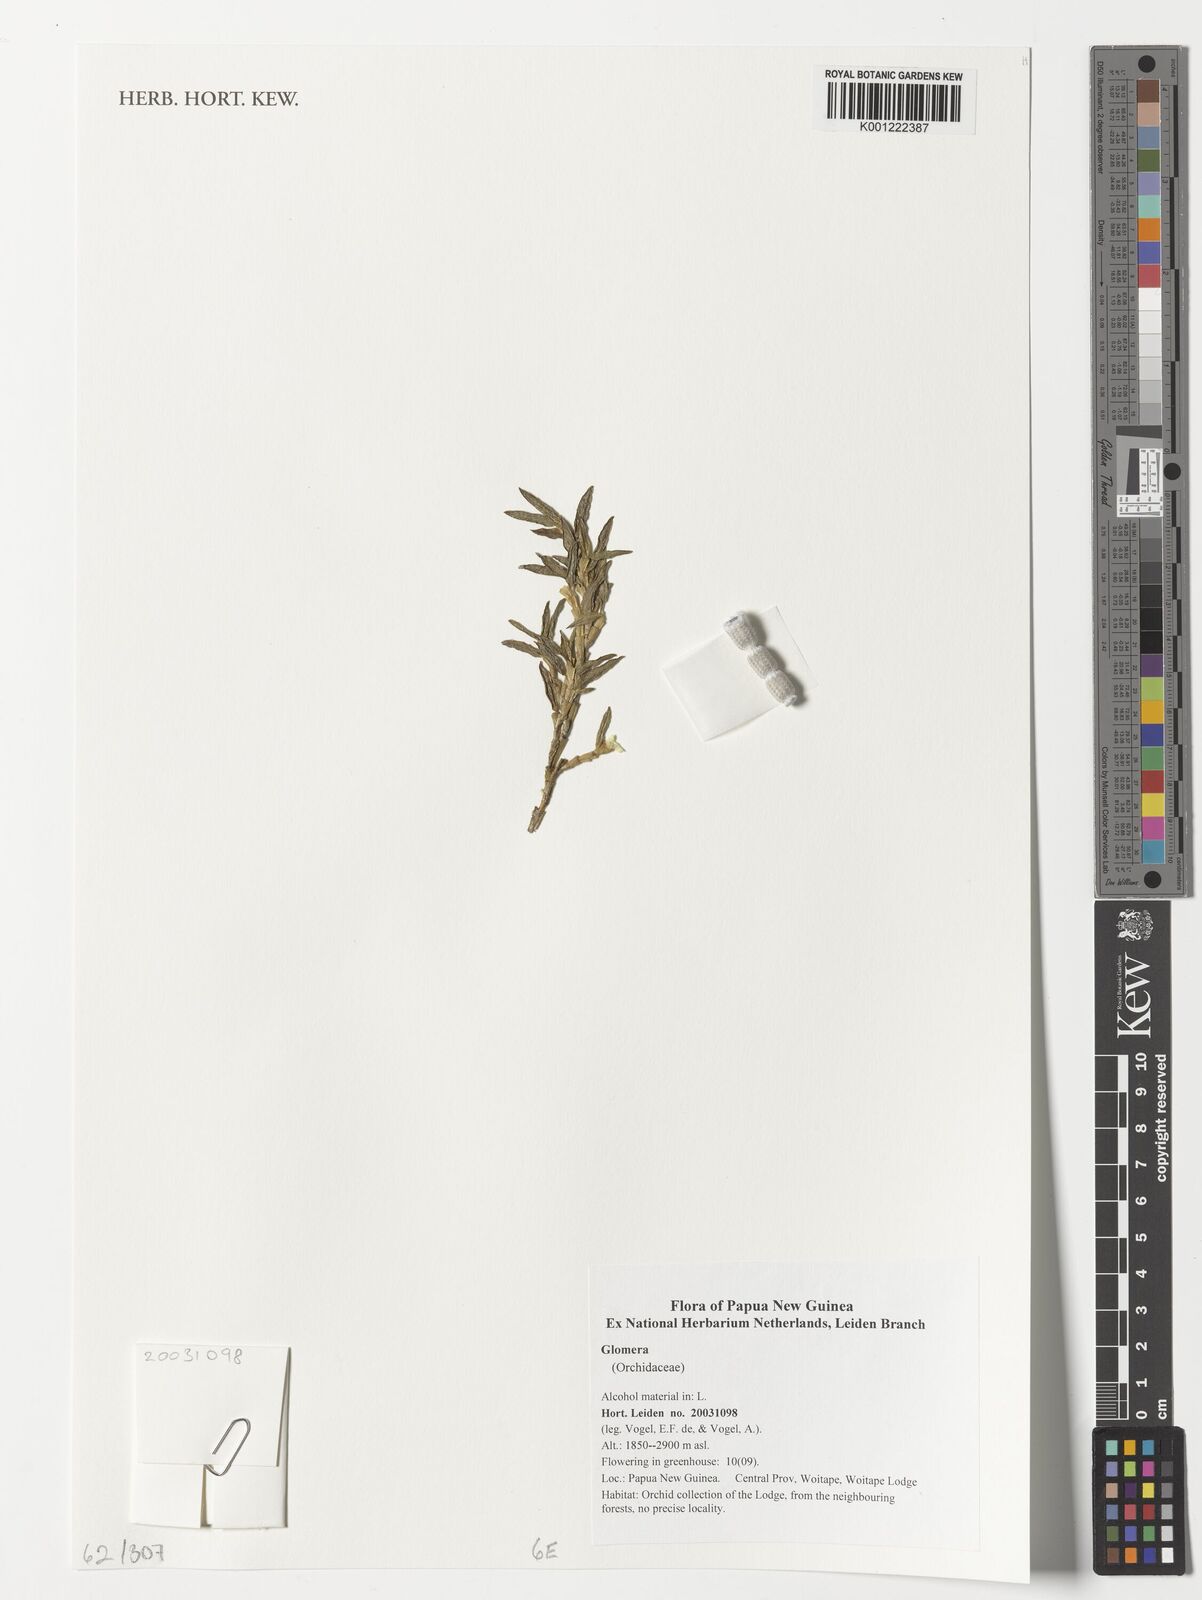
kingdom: Plantae
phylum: Tracheophyta
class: Liliopsida
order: Asparagales
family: Orchidaceae
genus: Glomera
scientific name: Glomera
